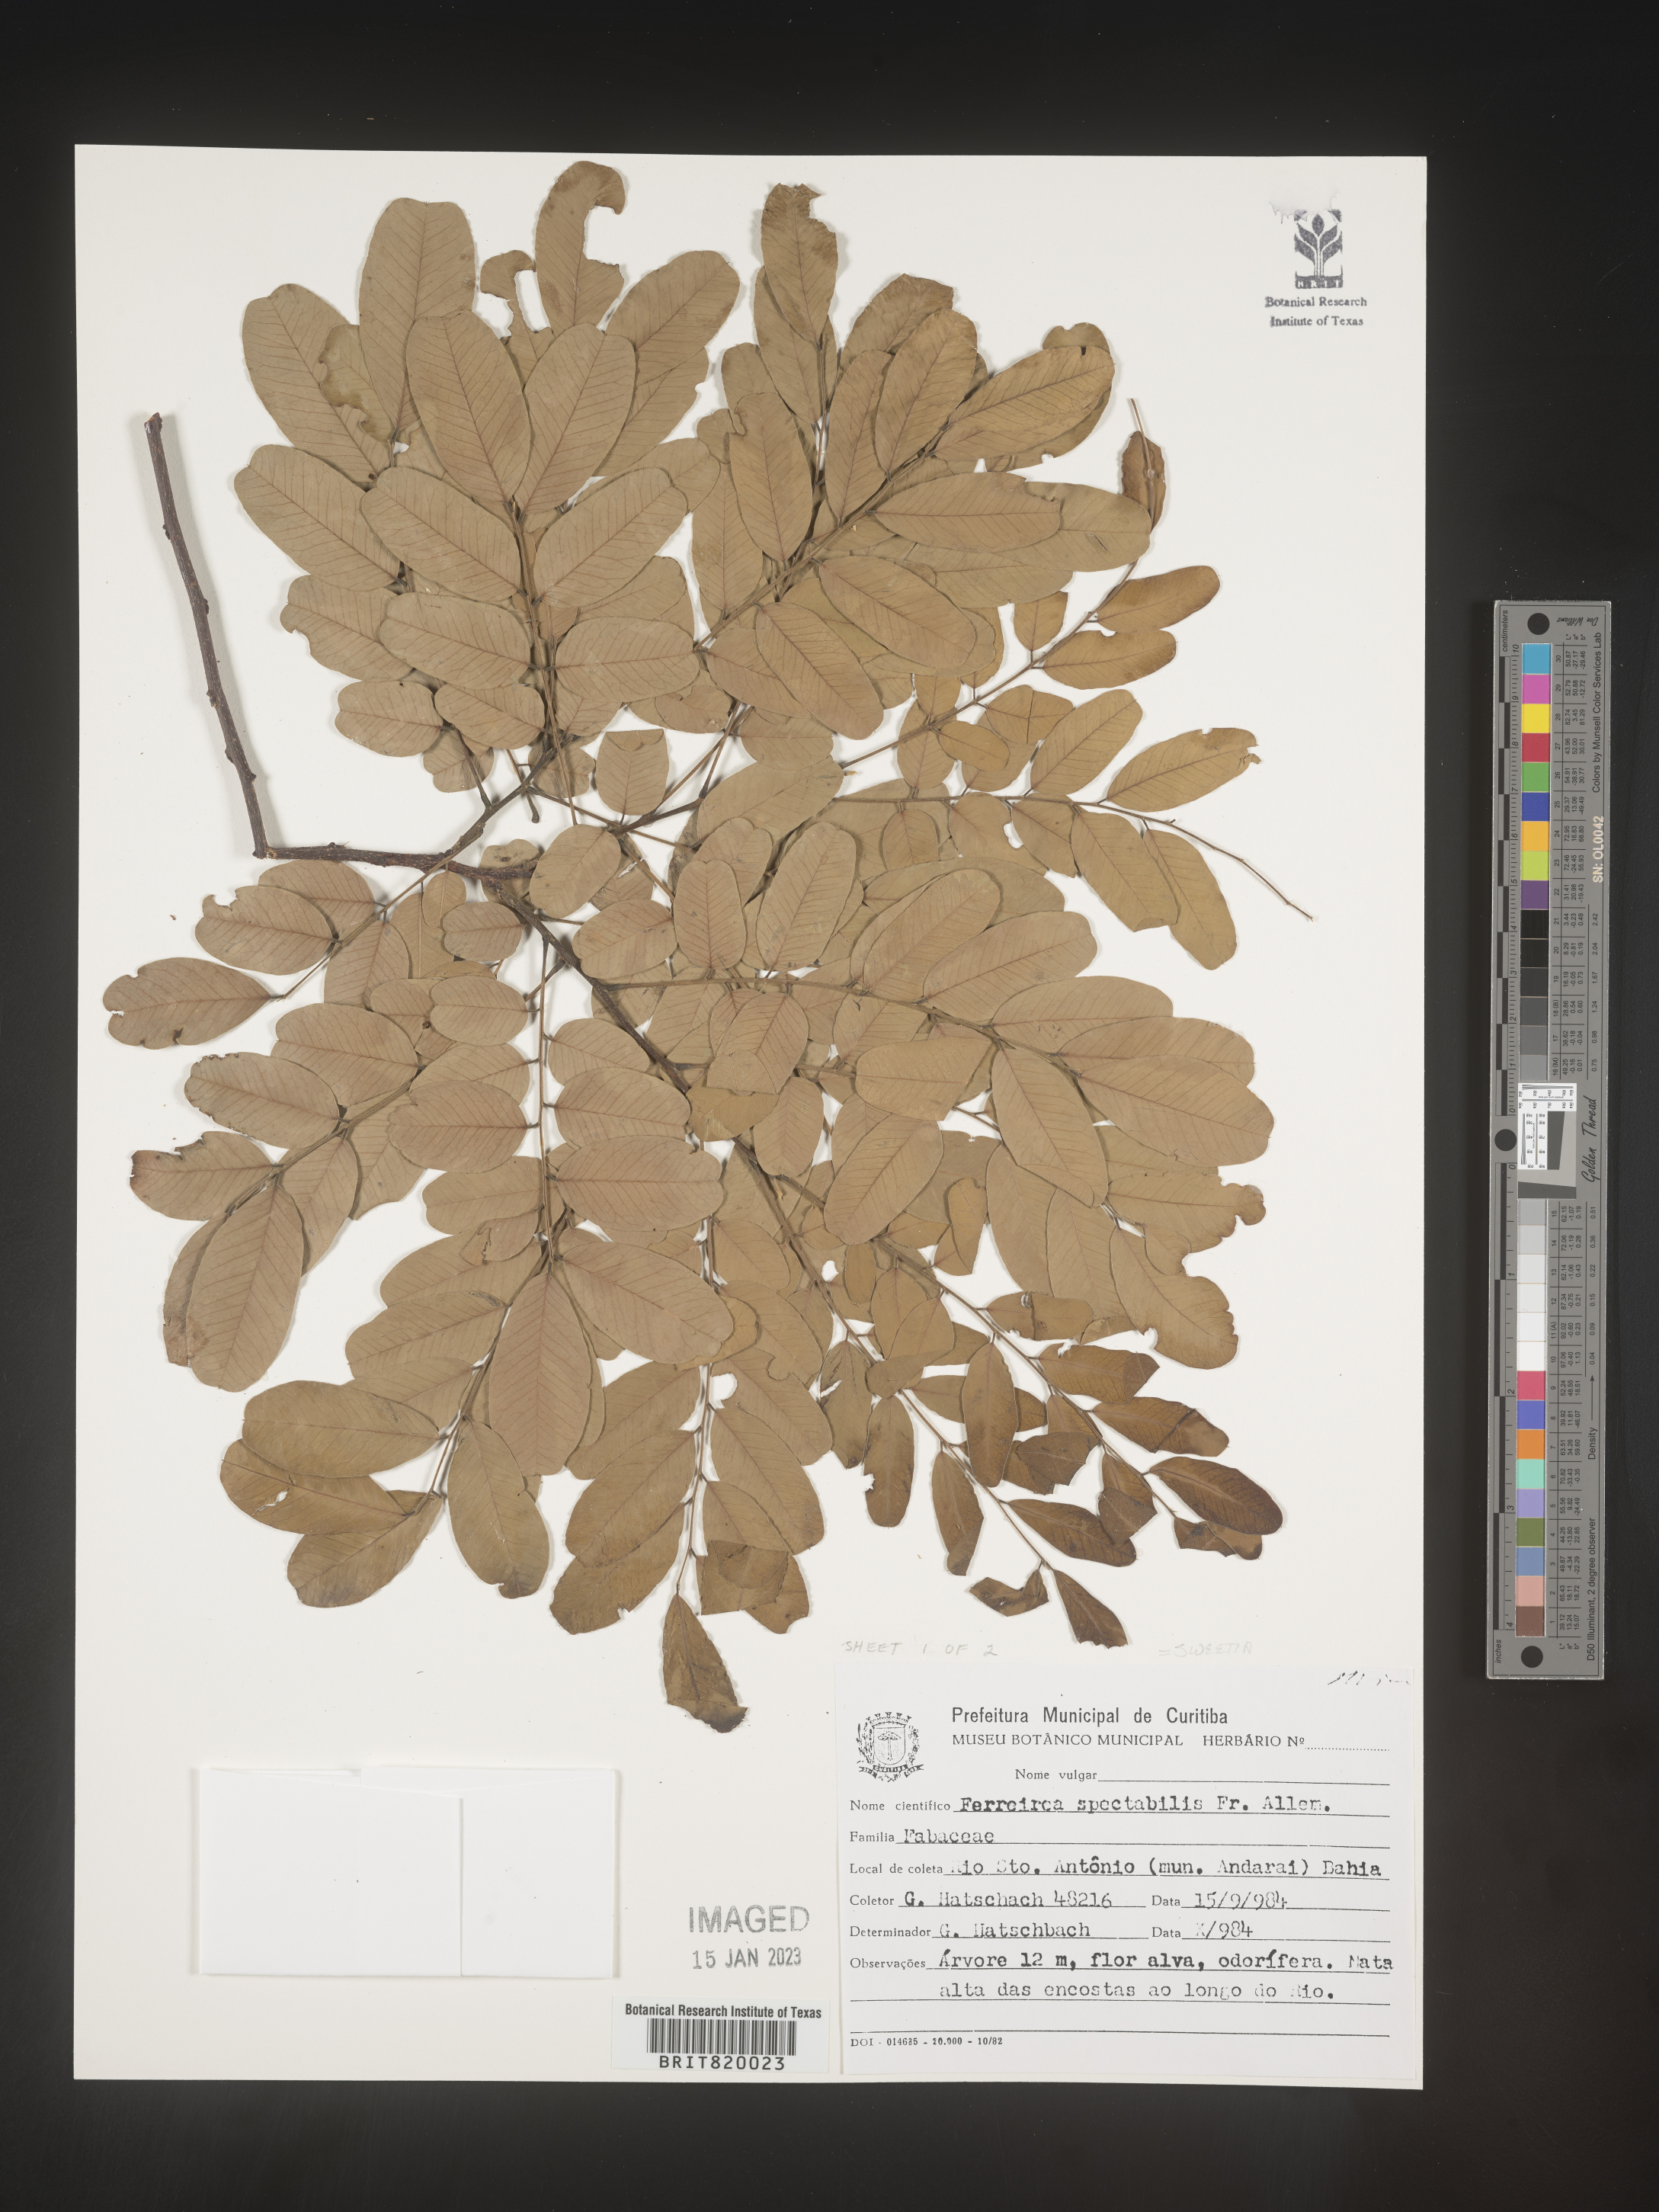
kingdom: Plantae
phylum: Tracheophyta
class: Magnoliopsida
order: Fabales
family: Fabaceae
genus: Sweetia
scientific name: Sweetia
